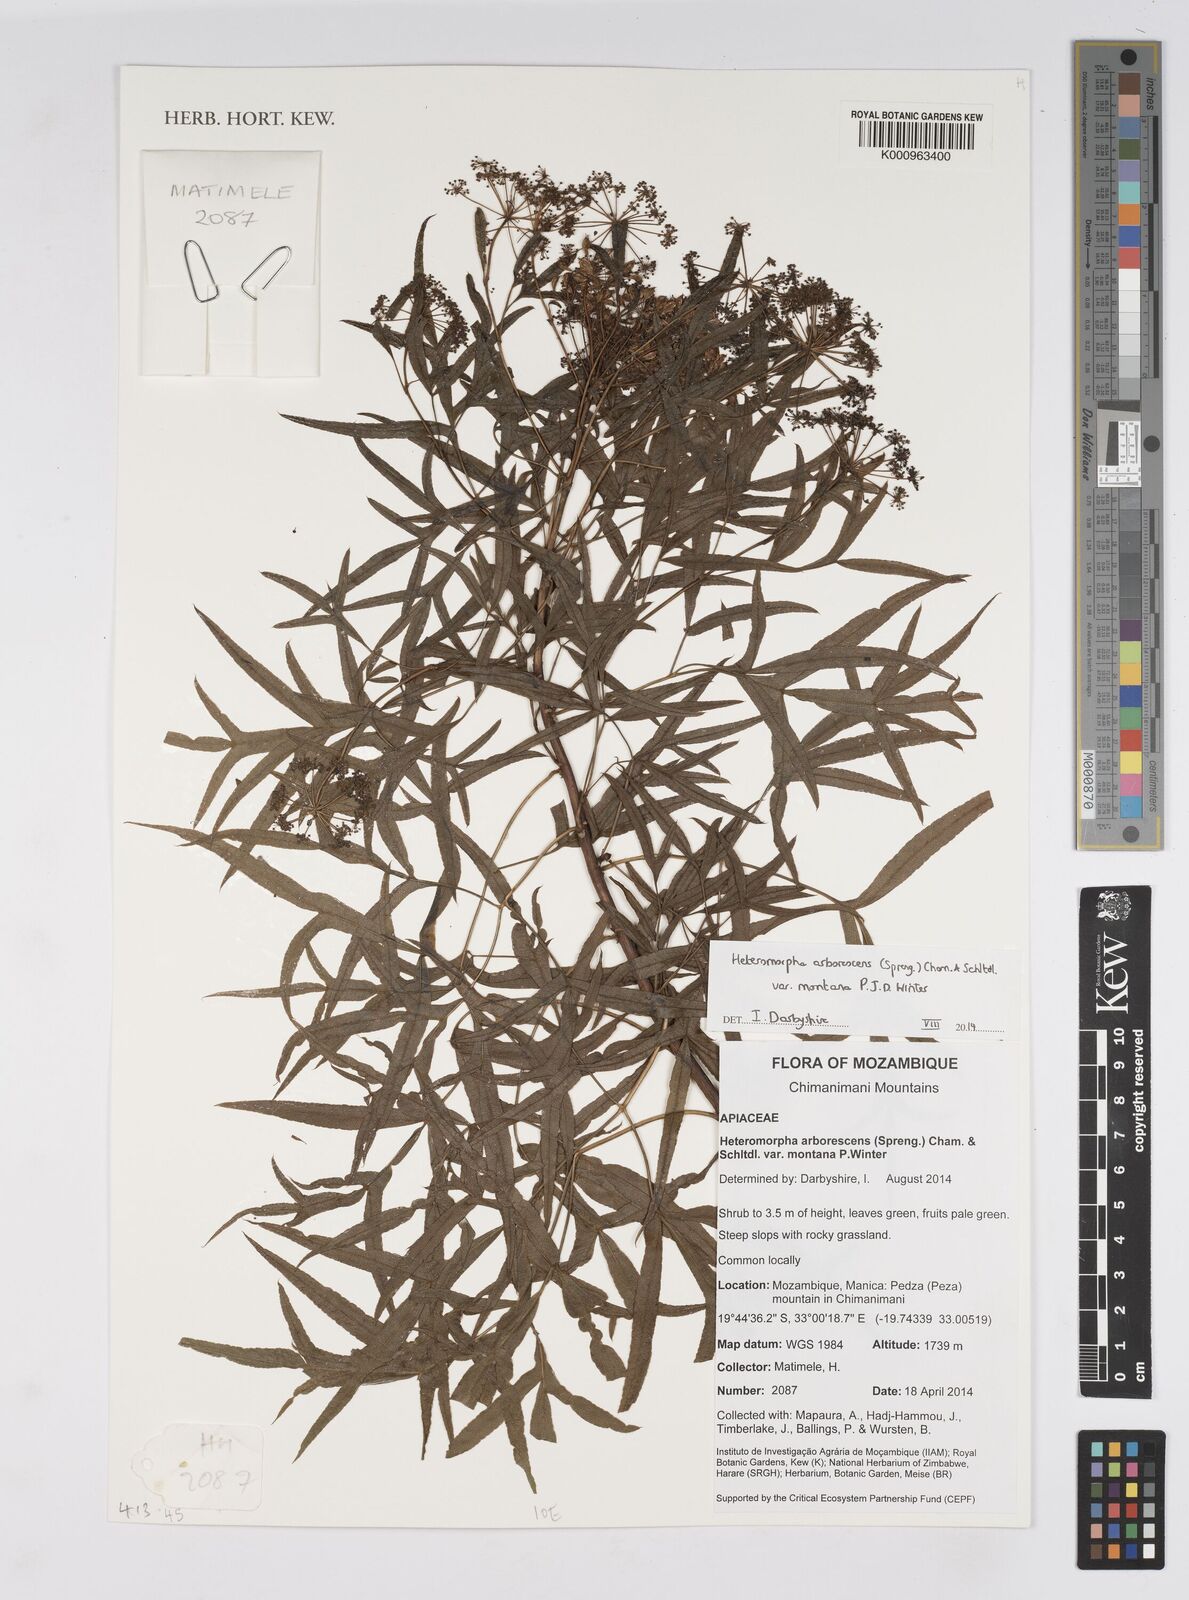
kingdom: Plantae
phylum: Tracheophyta
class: Magnoliopsida
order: Apiales
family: Apiaceae
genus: Heteromorpha
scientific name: Heteromorpha montana
